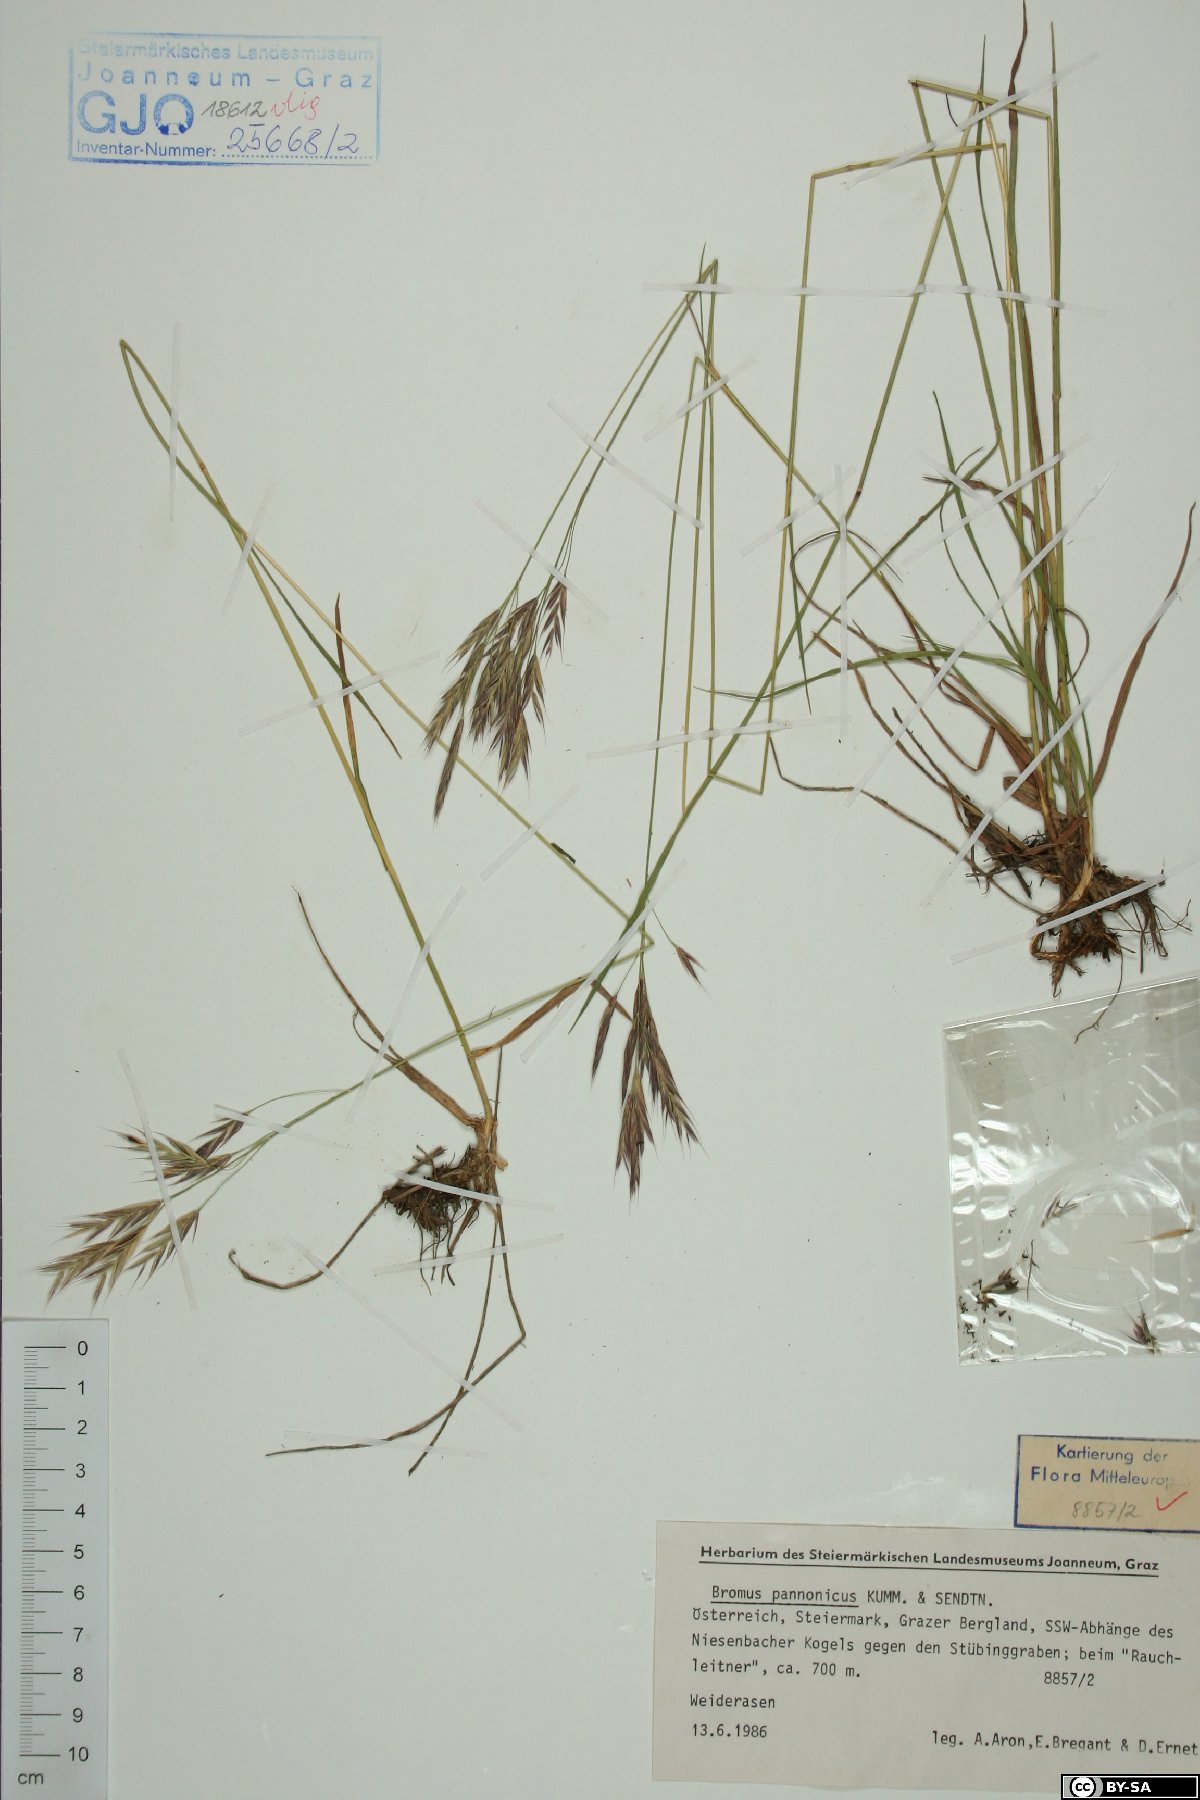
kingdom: Plantae
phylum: Tracheophyta
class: Liliopsida
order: Poales
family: Poaceae
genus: Bromus
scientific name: Bromus pannonicus
